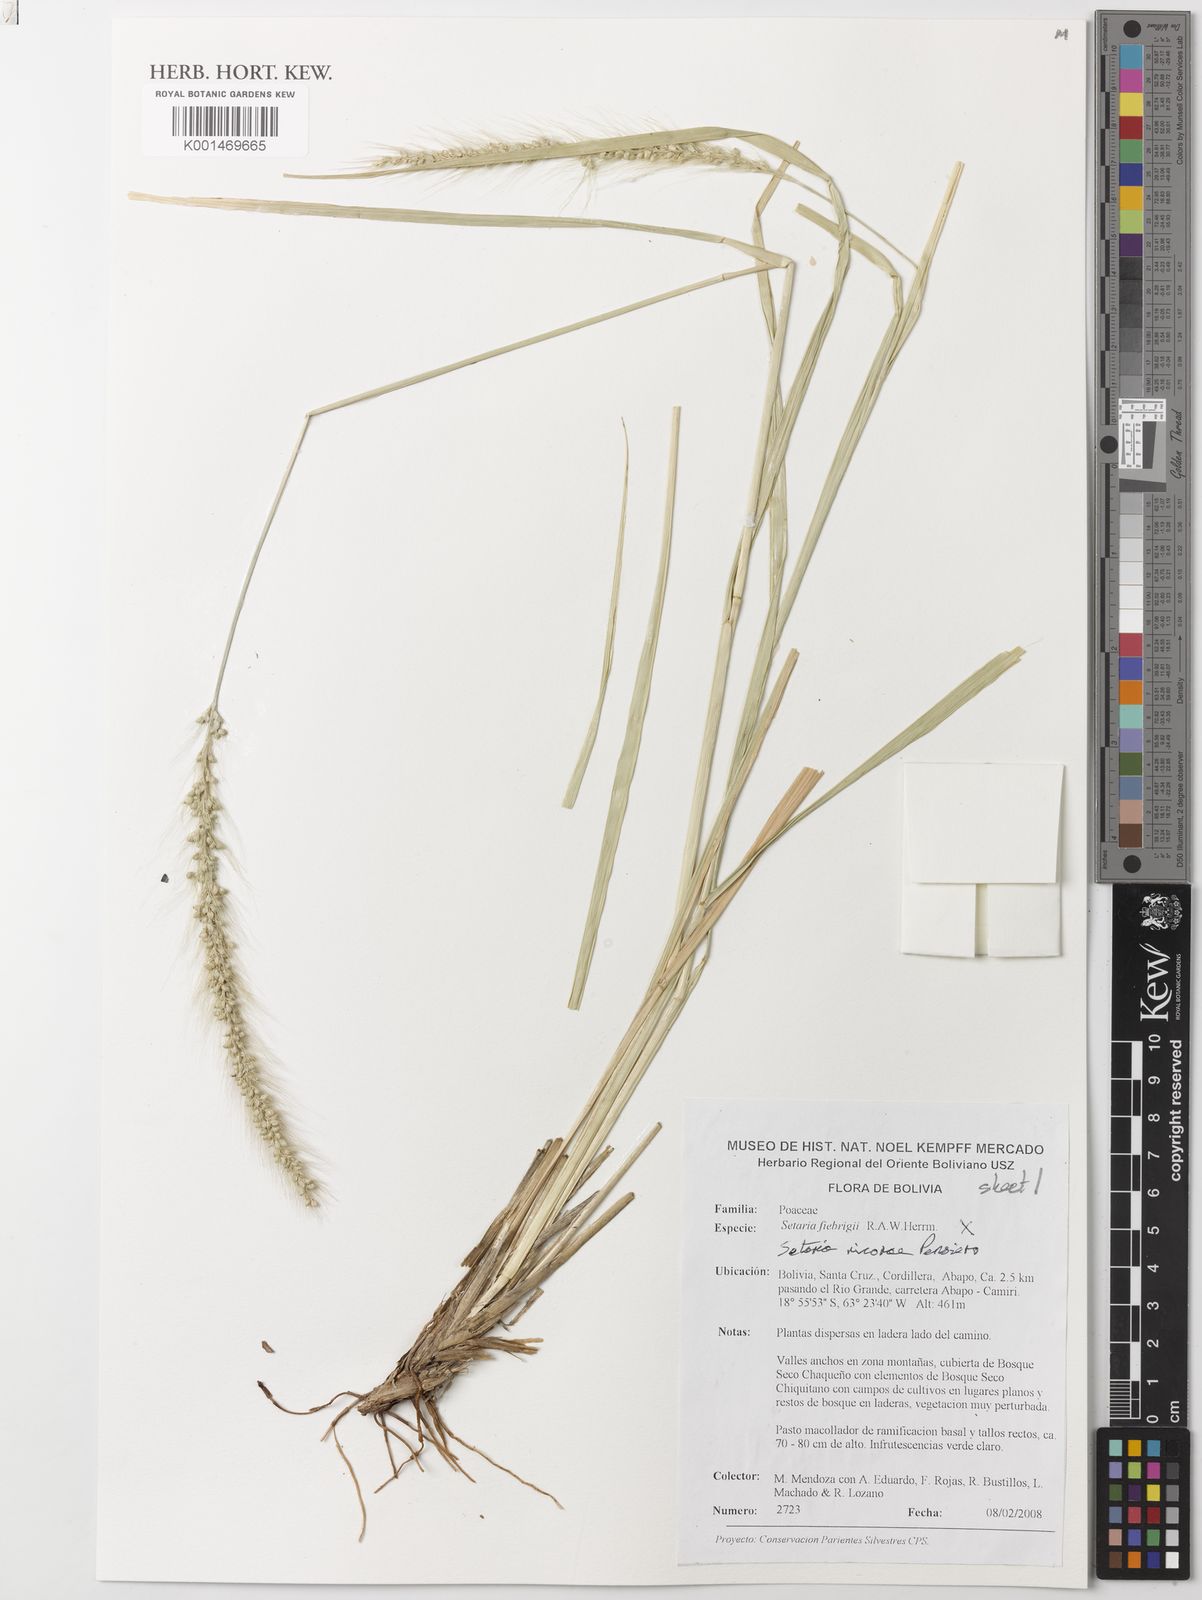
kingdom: Plantae
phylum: Tracheophyta
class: Liliopsida
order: Poales
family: Poaceae
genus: Setaria
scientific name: Setaria nicorae
